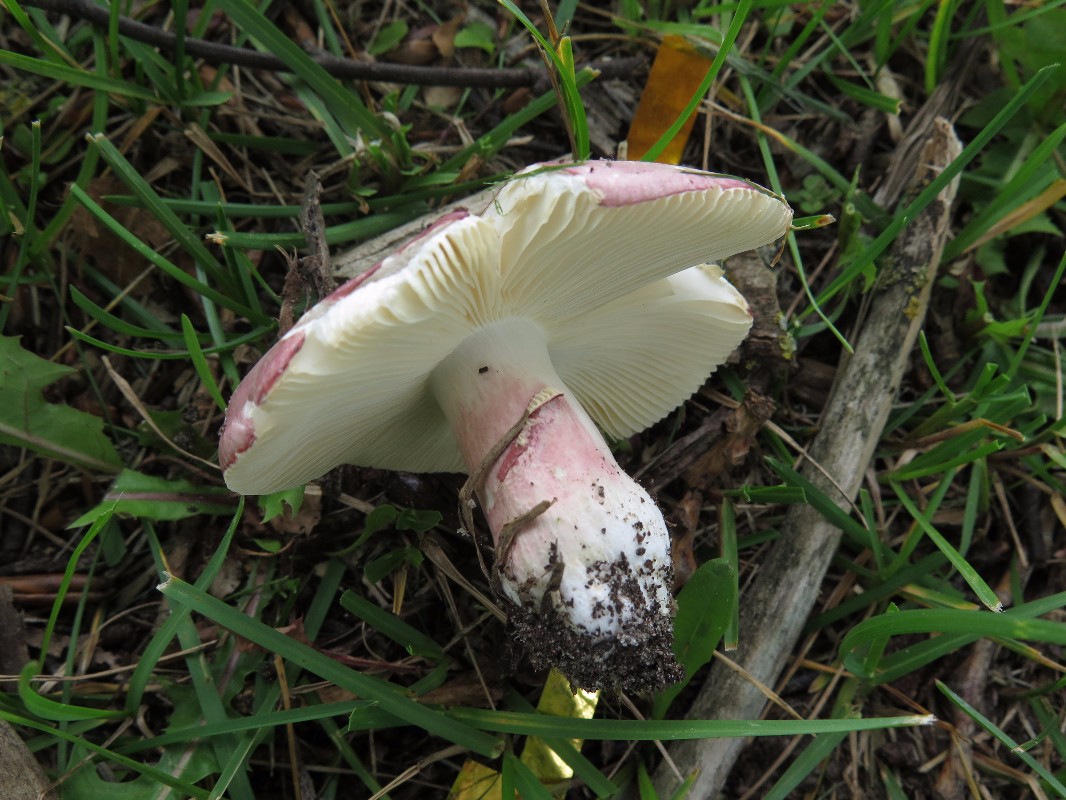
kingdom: Fungi
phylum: Basidiomycota
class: Agaricomycetes
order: Russulales
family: Russulaceae
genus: Russula
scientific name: Russula depallens
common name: falmende skørhat
